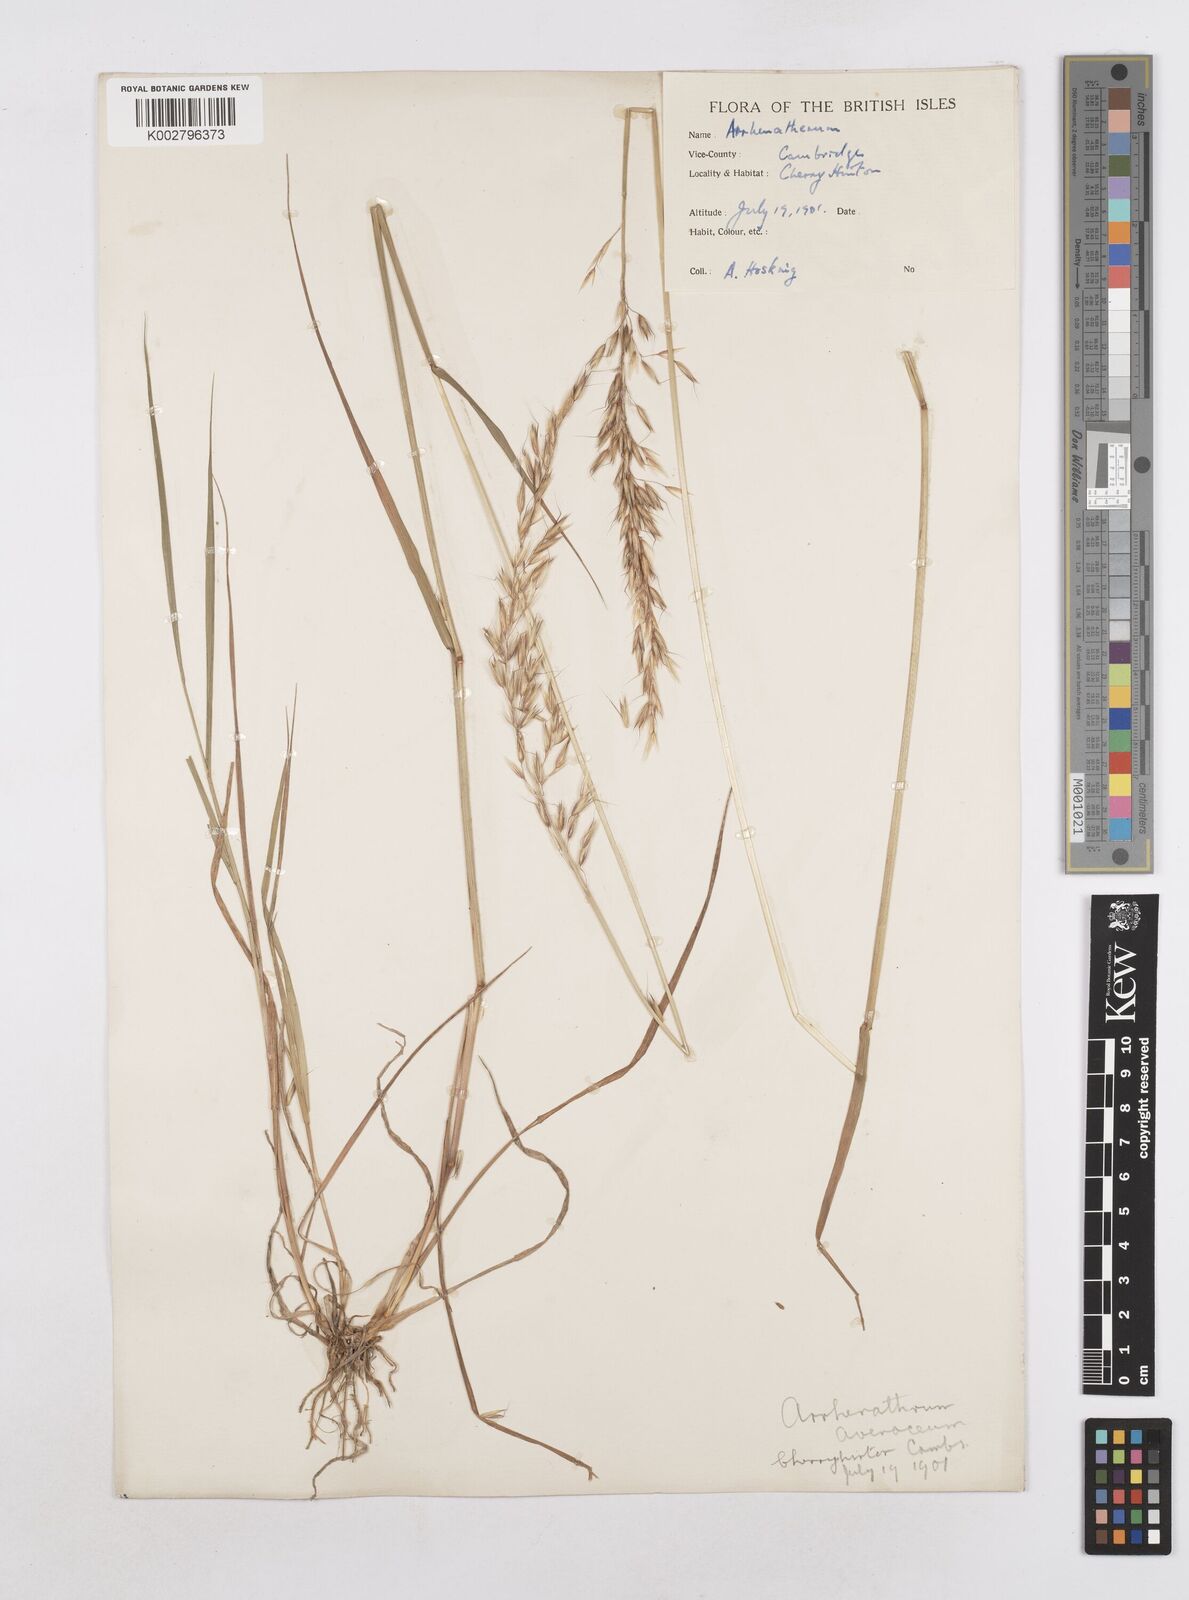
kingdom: Plantae
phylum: Tracheophyta
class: Liliopsida
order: Poales
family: Poaceae
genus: Arrhenatherum
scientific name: Arrhenatherum elatius
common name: Tall oatgrass
